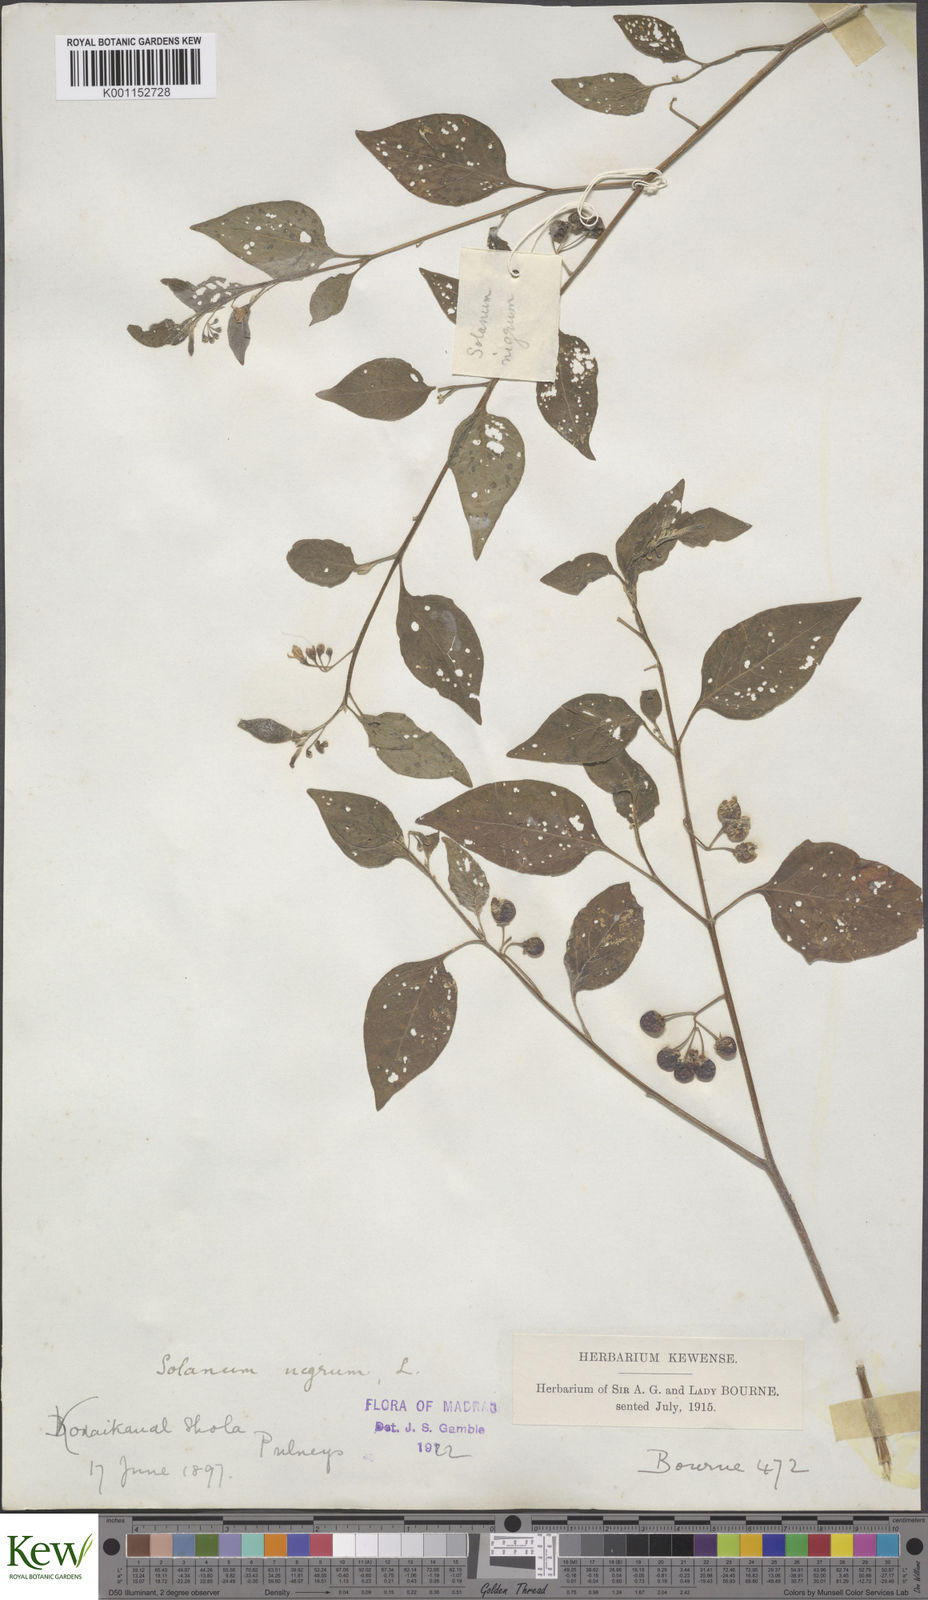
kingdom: Plantae
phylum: Tracheophyta
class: Magnoliopsida
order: Solanales
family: Solanaceae
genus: Solanum
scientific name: Solanum nigrum
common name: Black nightshade
